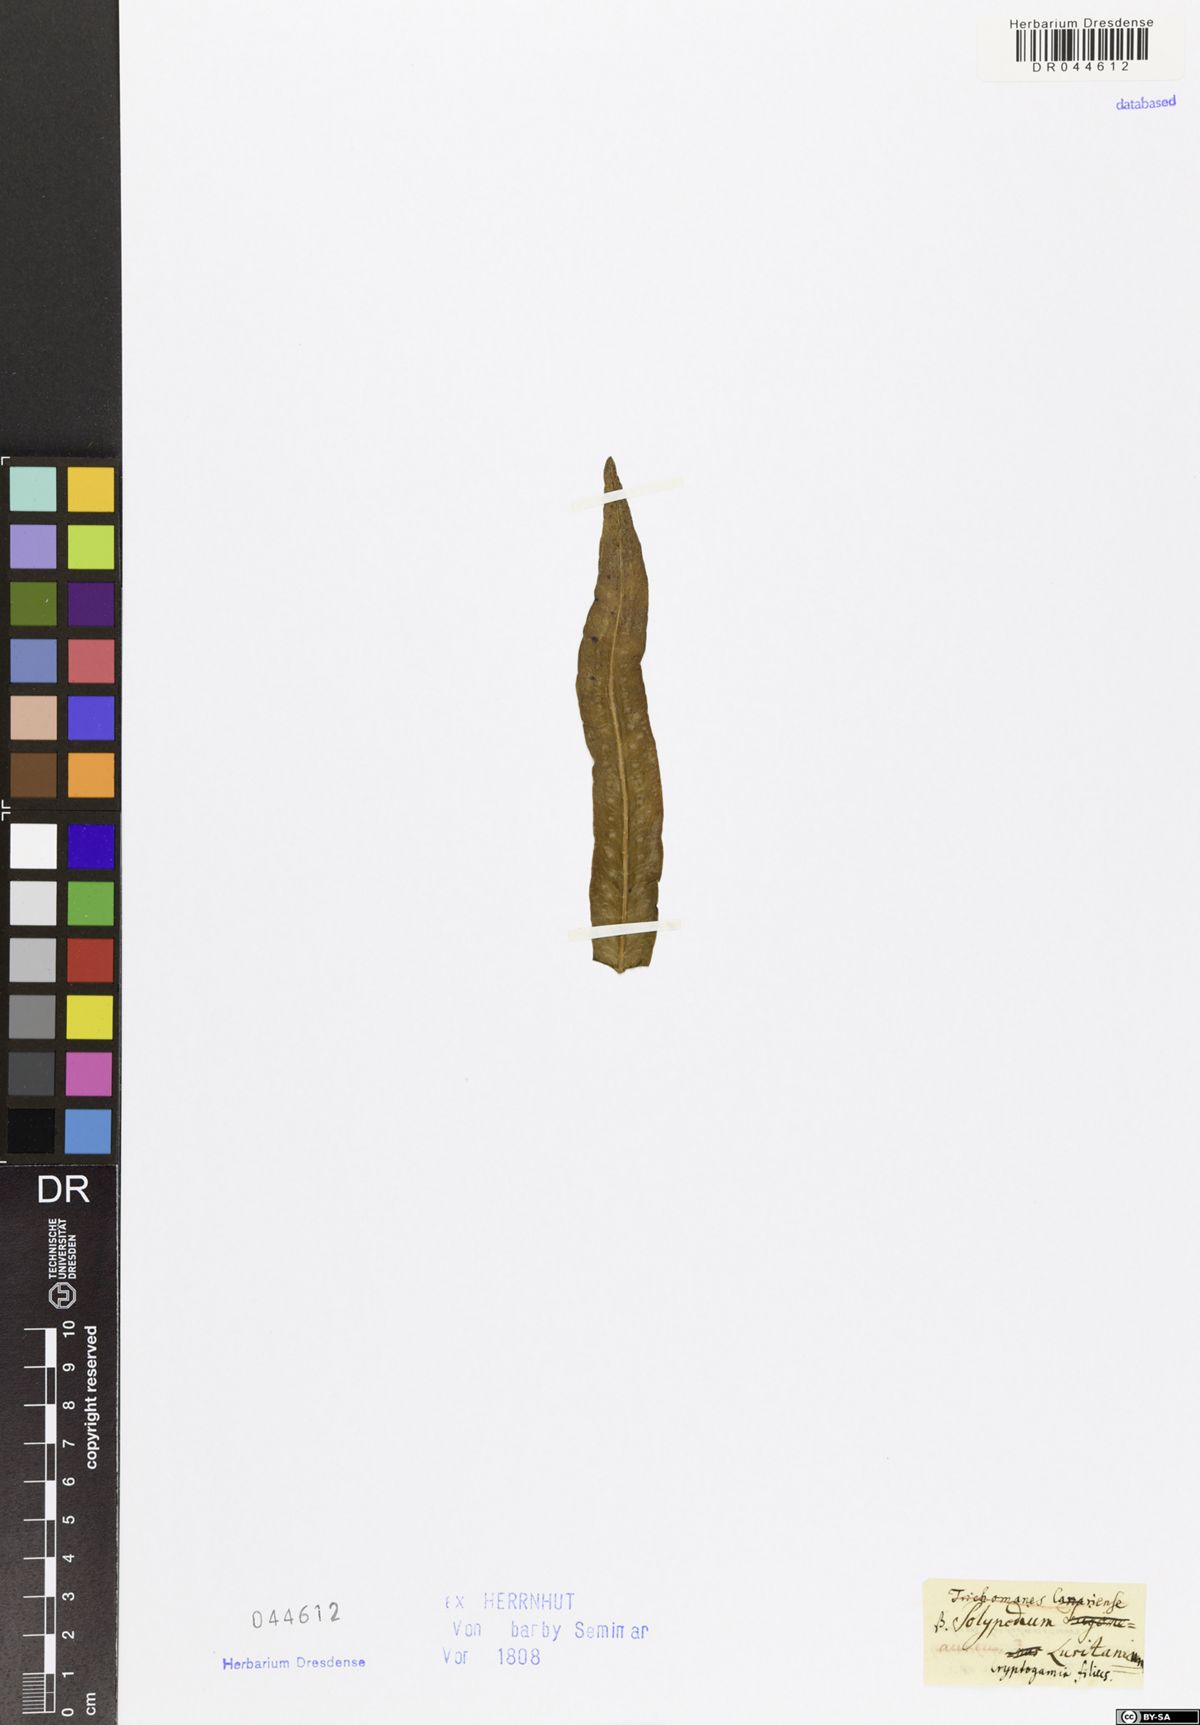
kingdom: Plantae
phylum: Tracheophyta
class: Polypodiopsida
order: Polypodiales
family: Polypodiaceae
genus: Polypodium
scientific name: Polypodium
